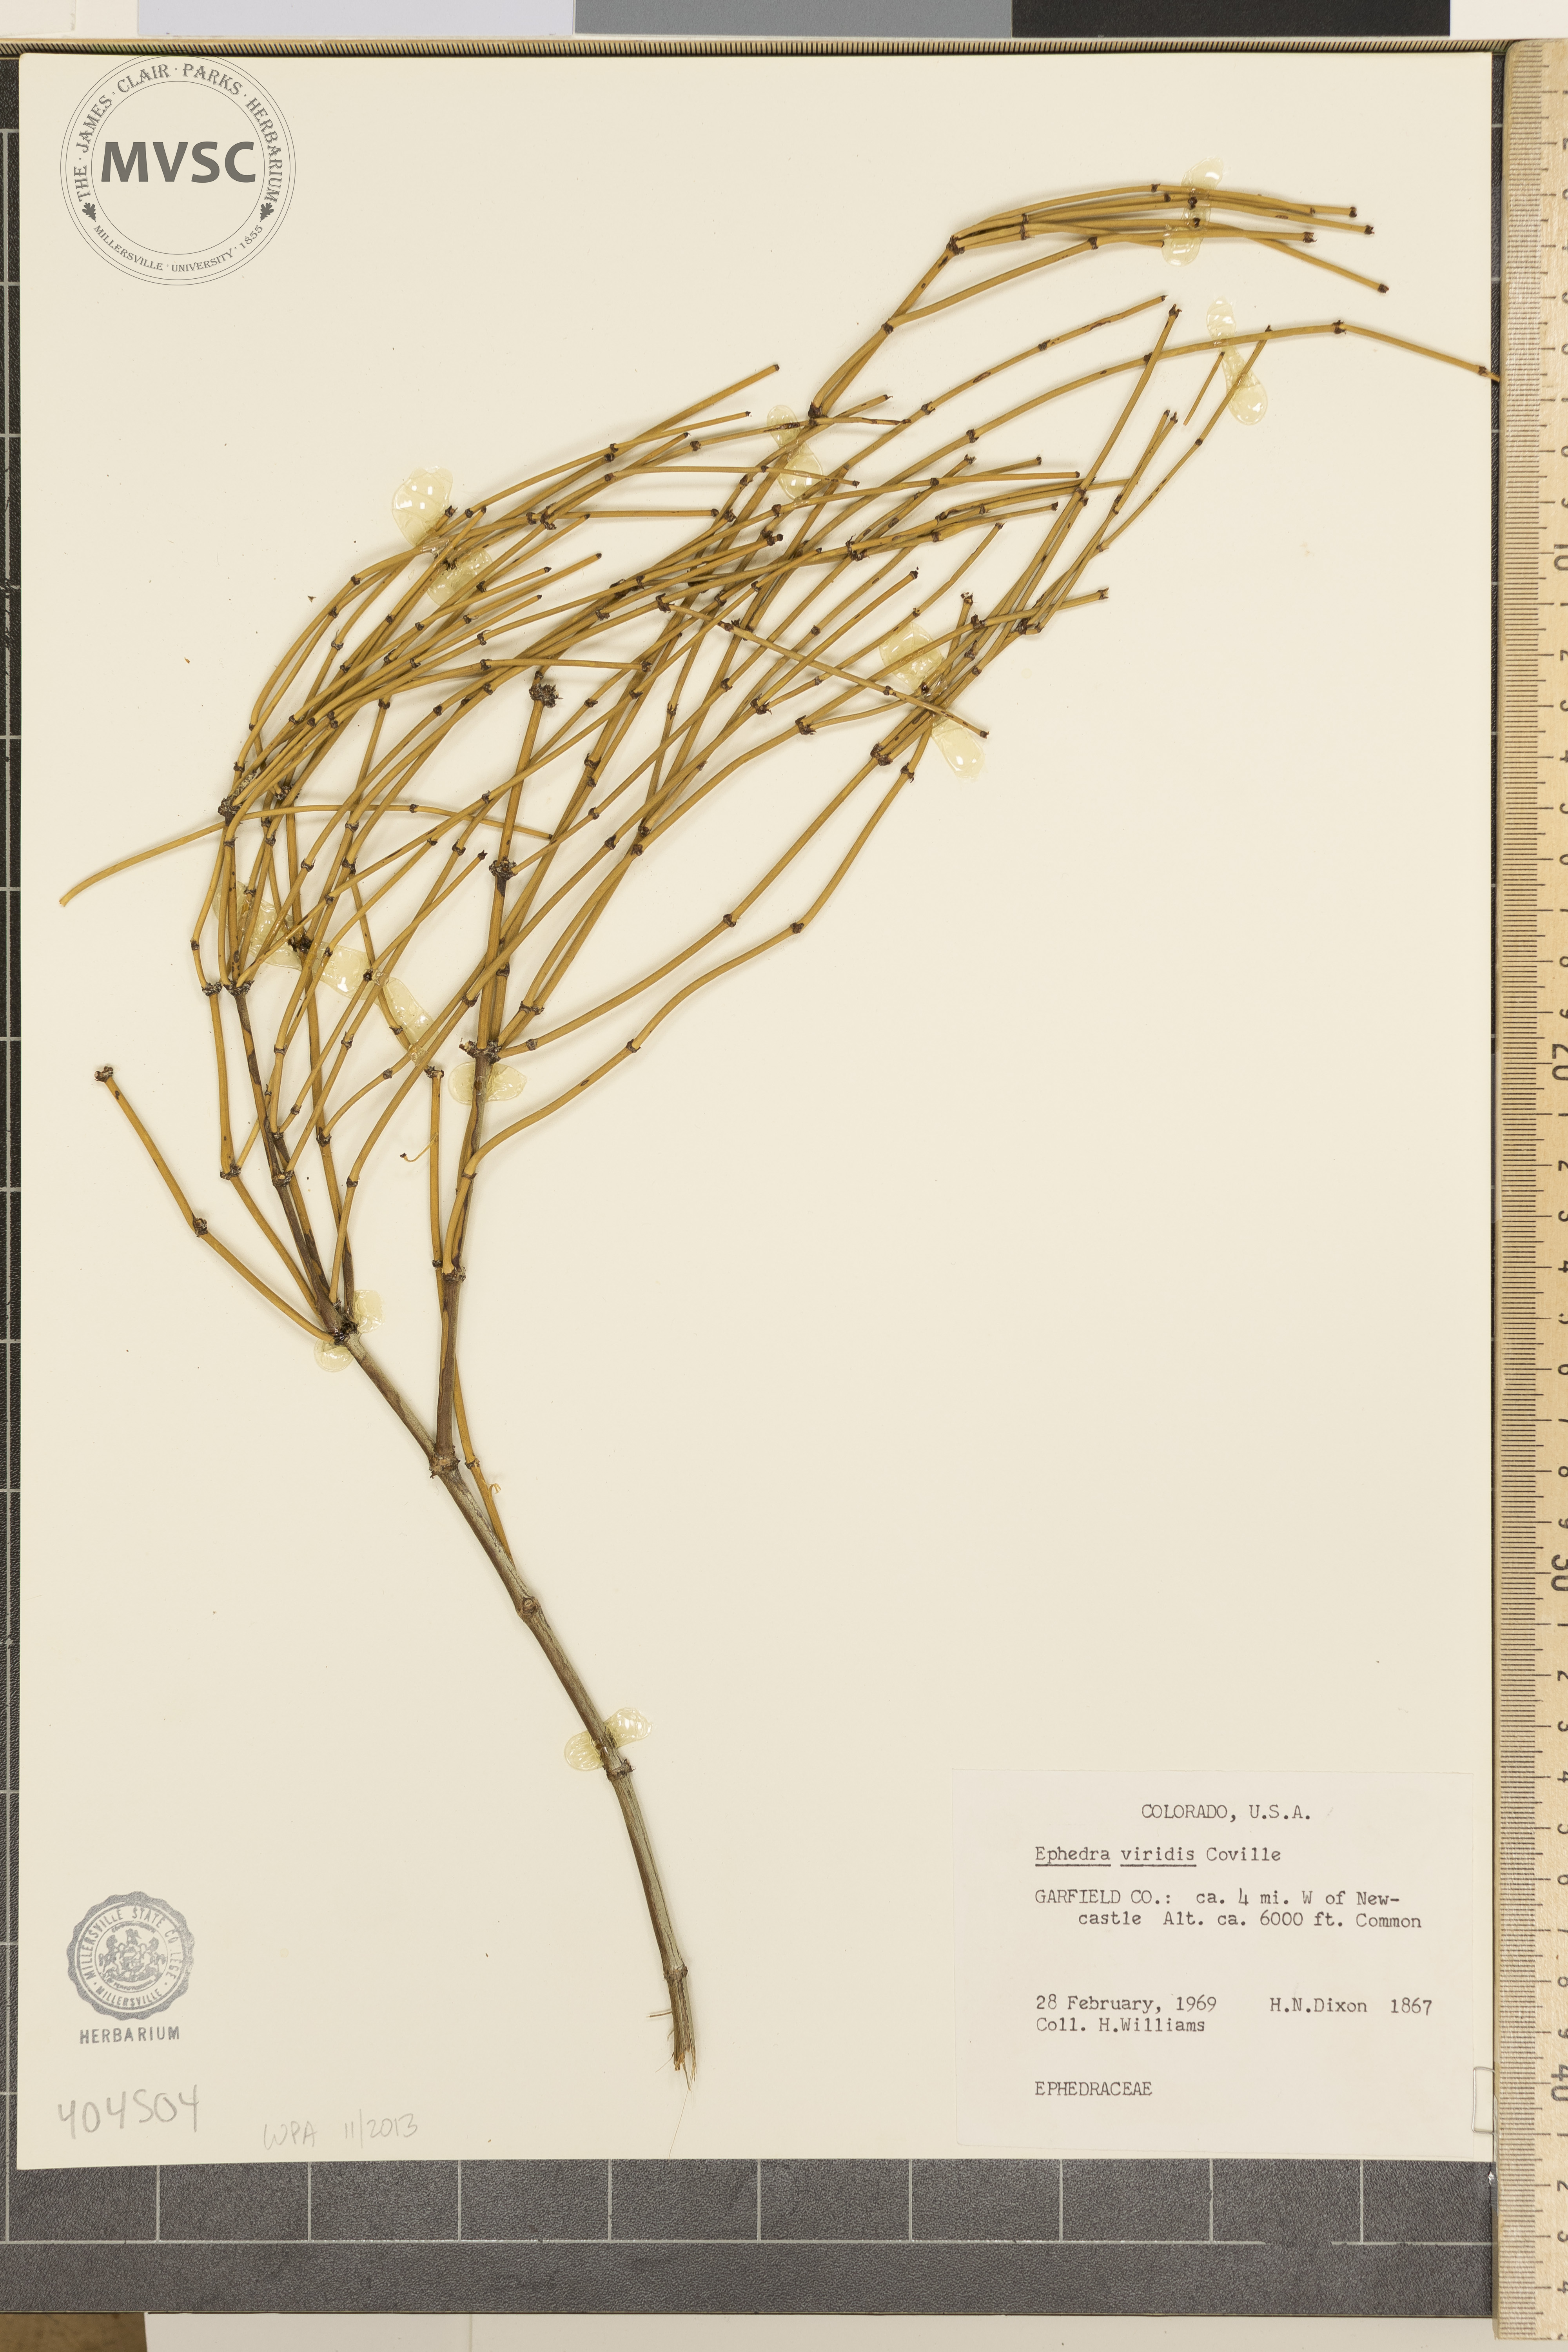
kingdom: Plantae
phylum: Tracheophyta
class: Gnetopsida
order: Ephedrales
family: Ephedraceae
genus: Ephedra
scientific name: Ephedra viridis
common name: Mormon-tea
